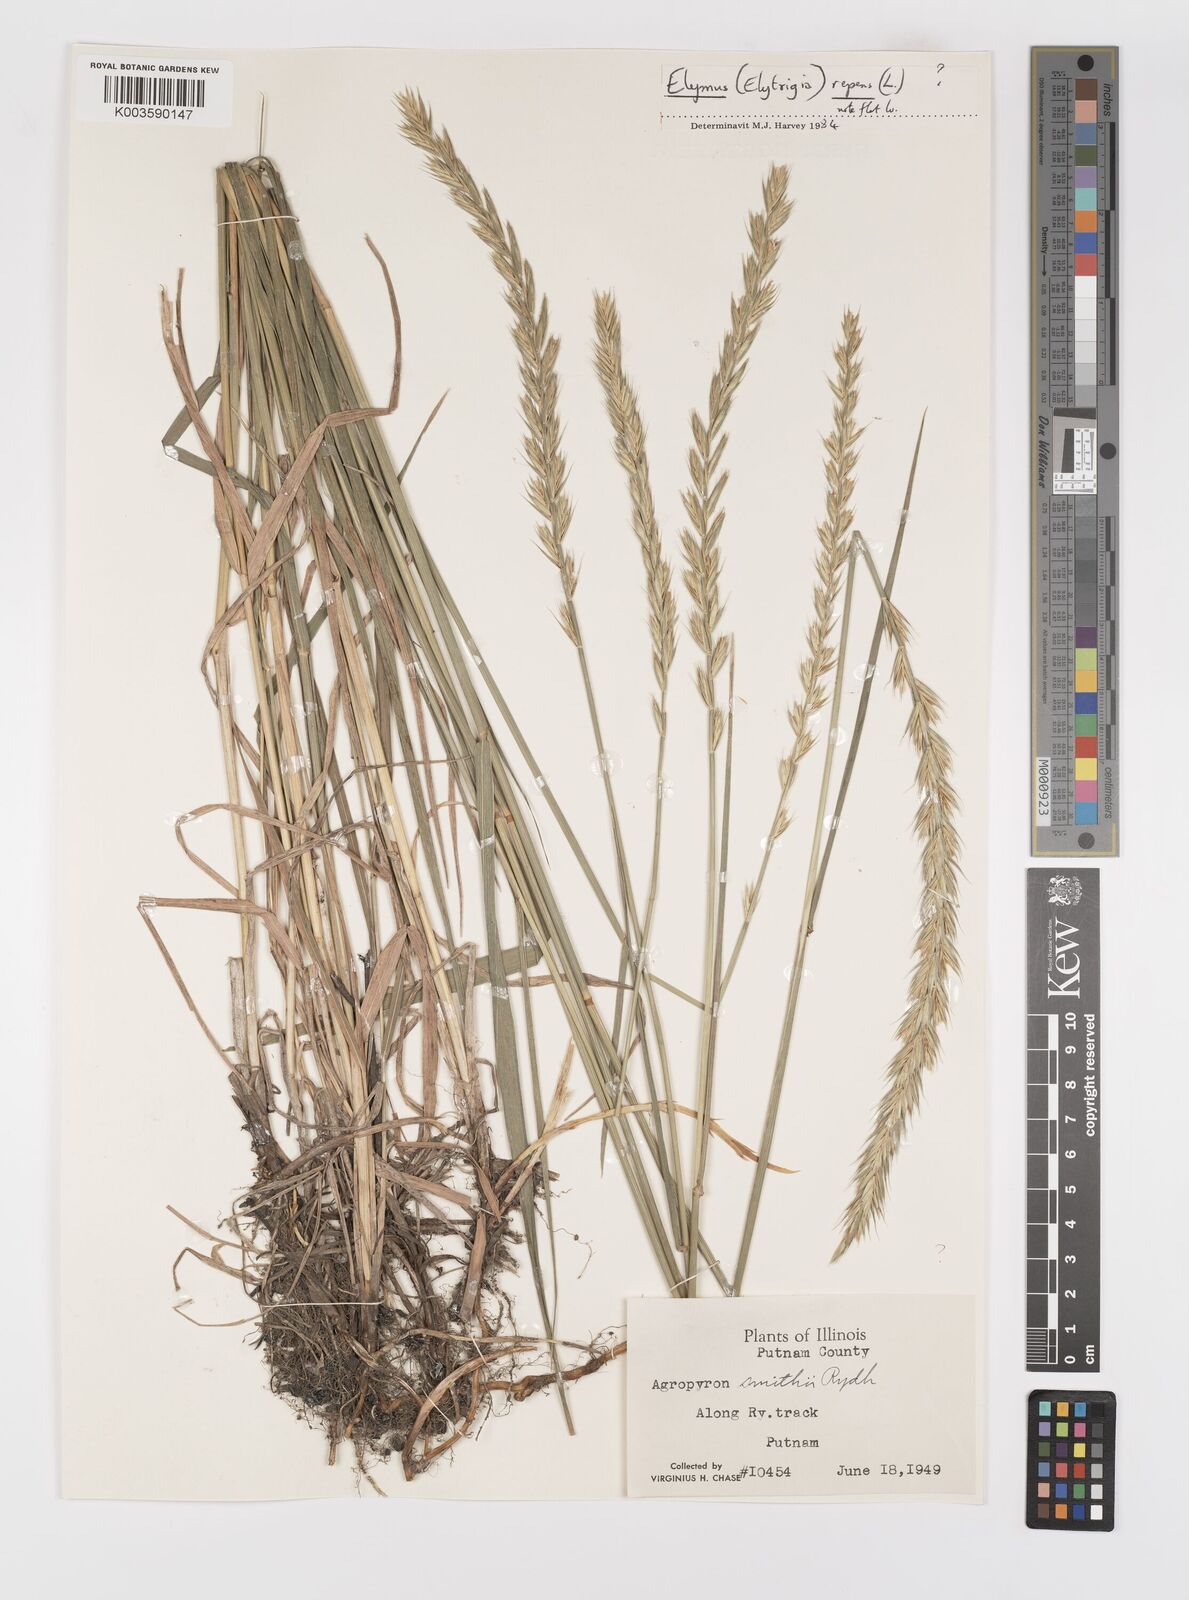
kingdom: Plantae
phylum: Tracheophyta
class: Liliopsida
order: Poales
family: Poaceae
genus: Elymus
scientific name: Elymus smithii
